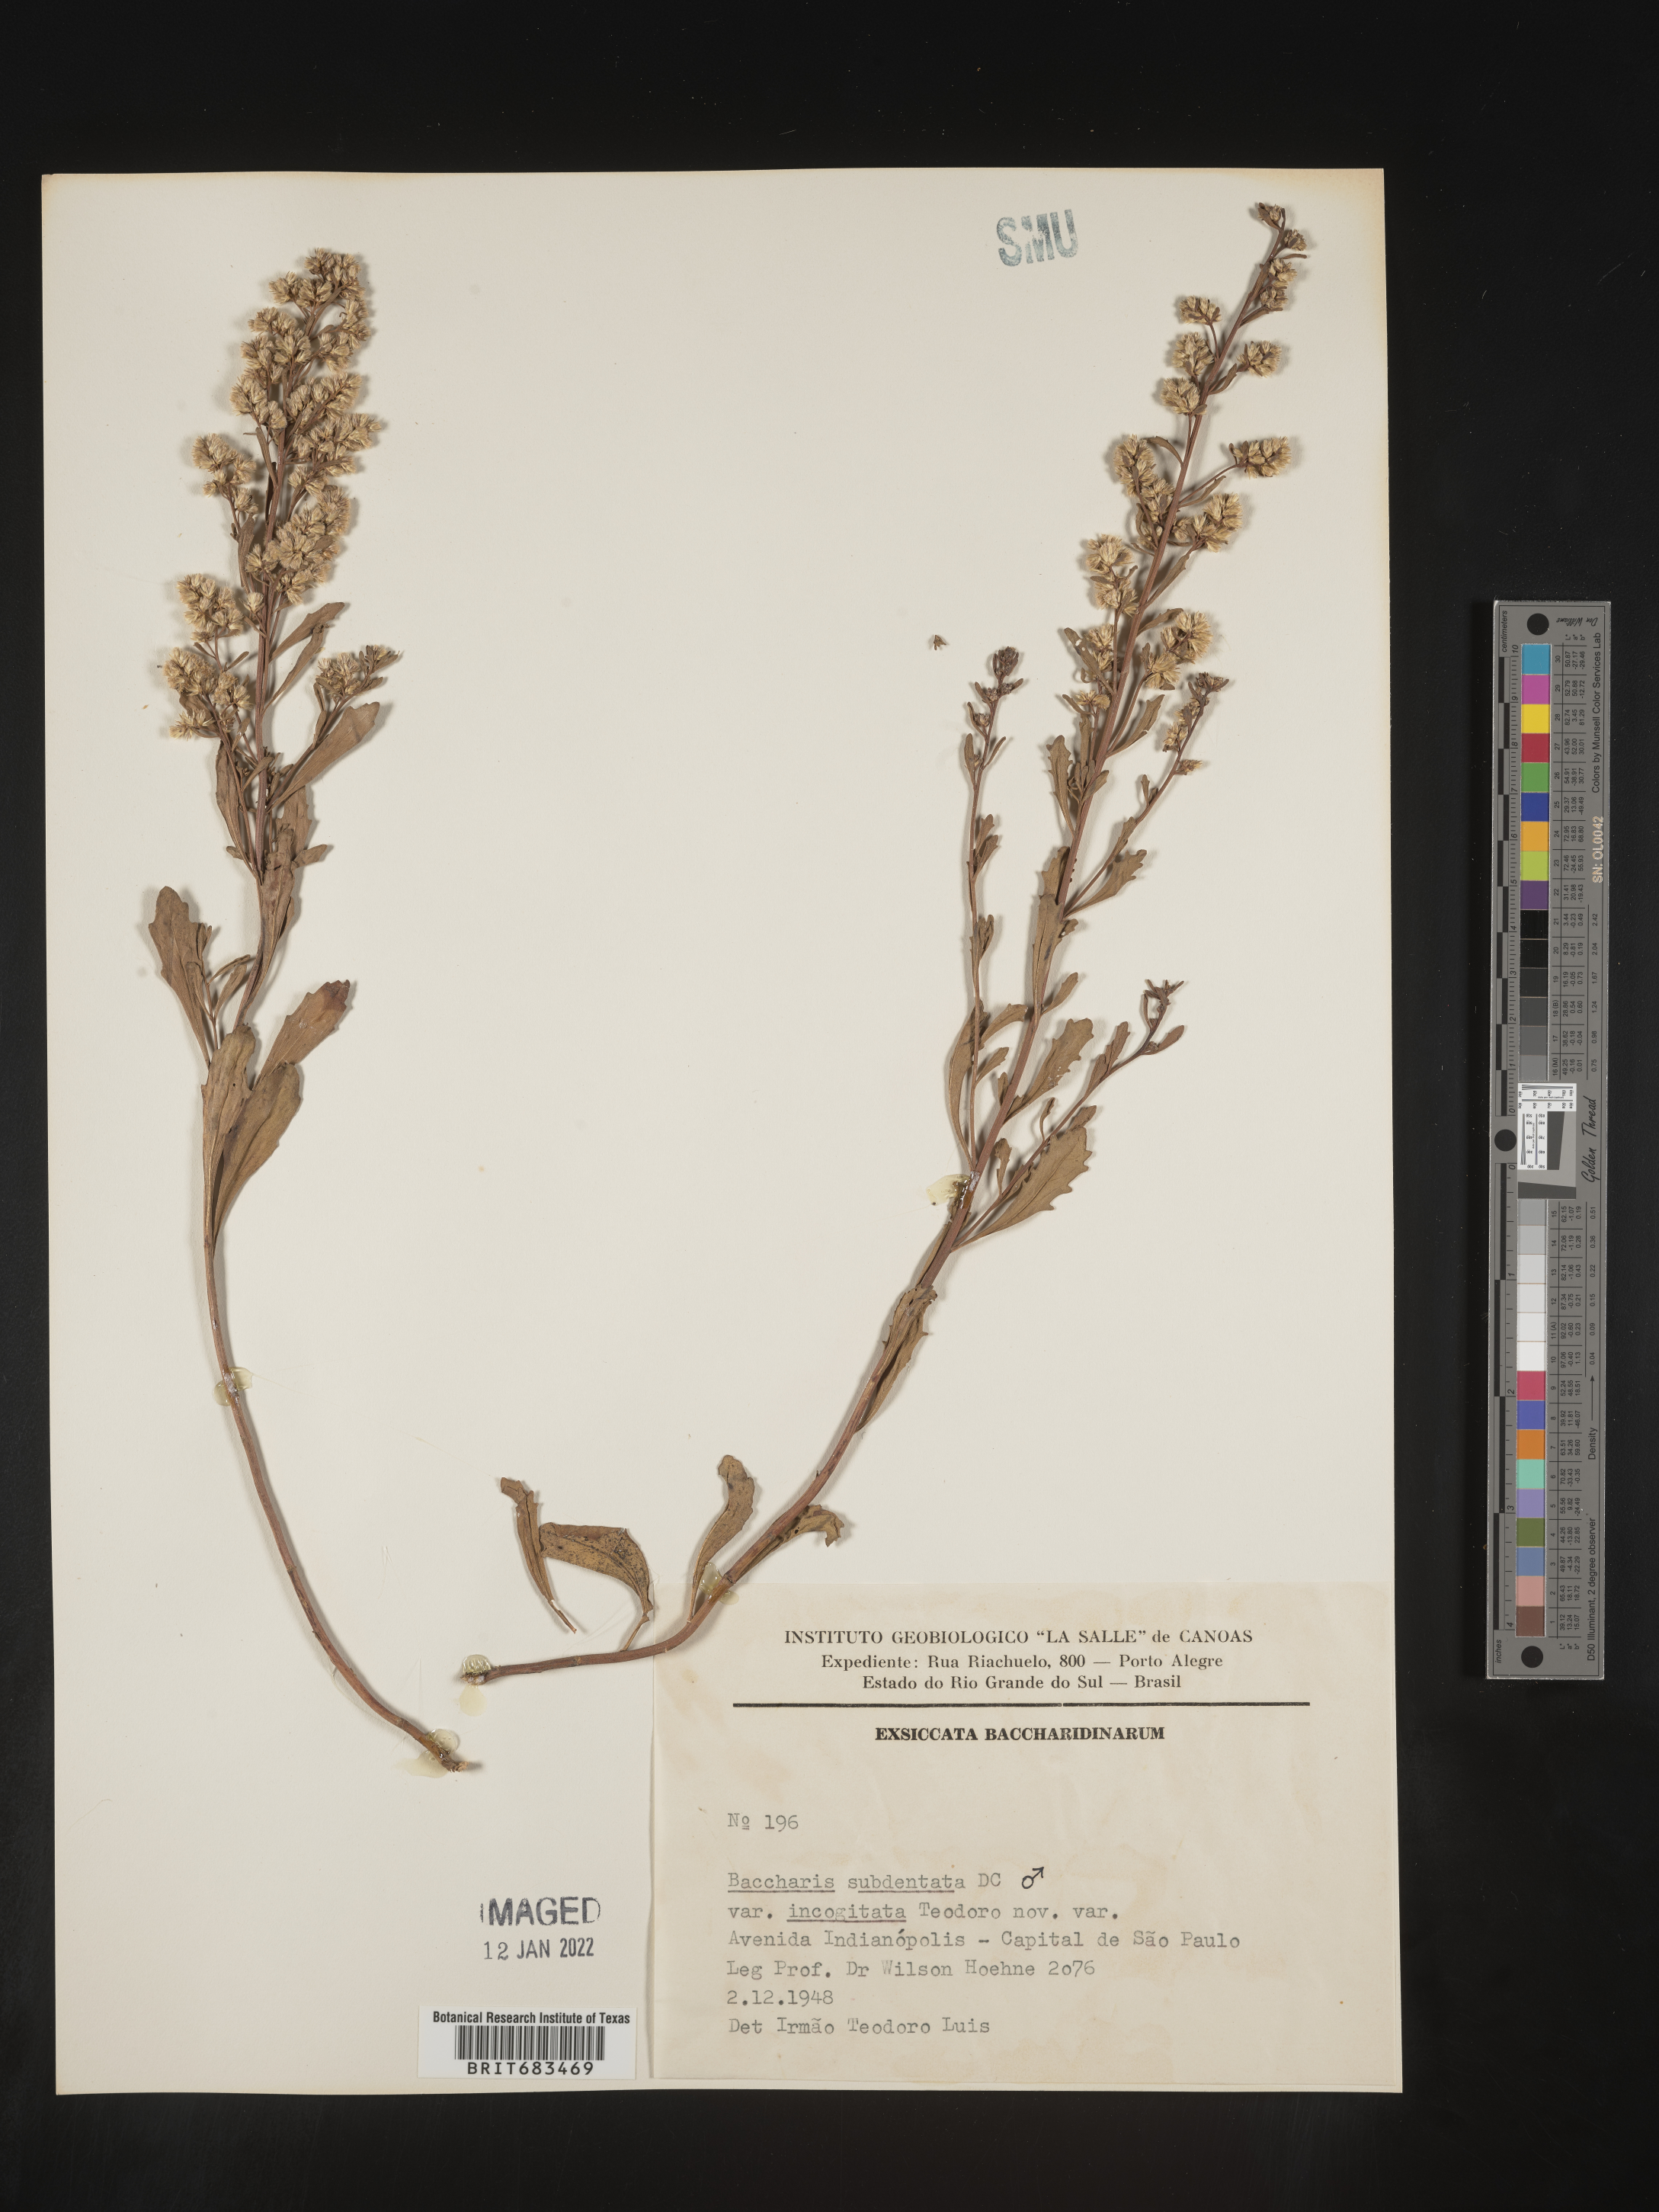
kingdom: Plantae
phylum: Tracheophyta
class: Magnoliopsida
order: Asterales
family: Asteraceae
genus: Baccharis
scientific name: Baccharis
